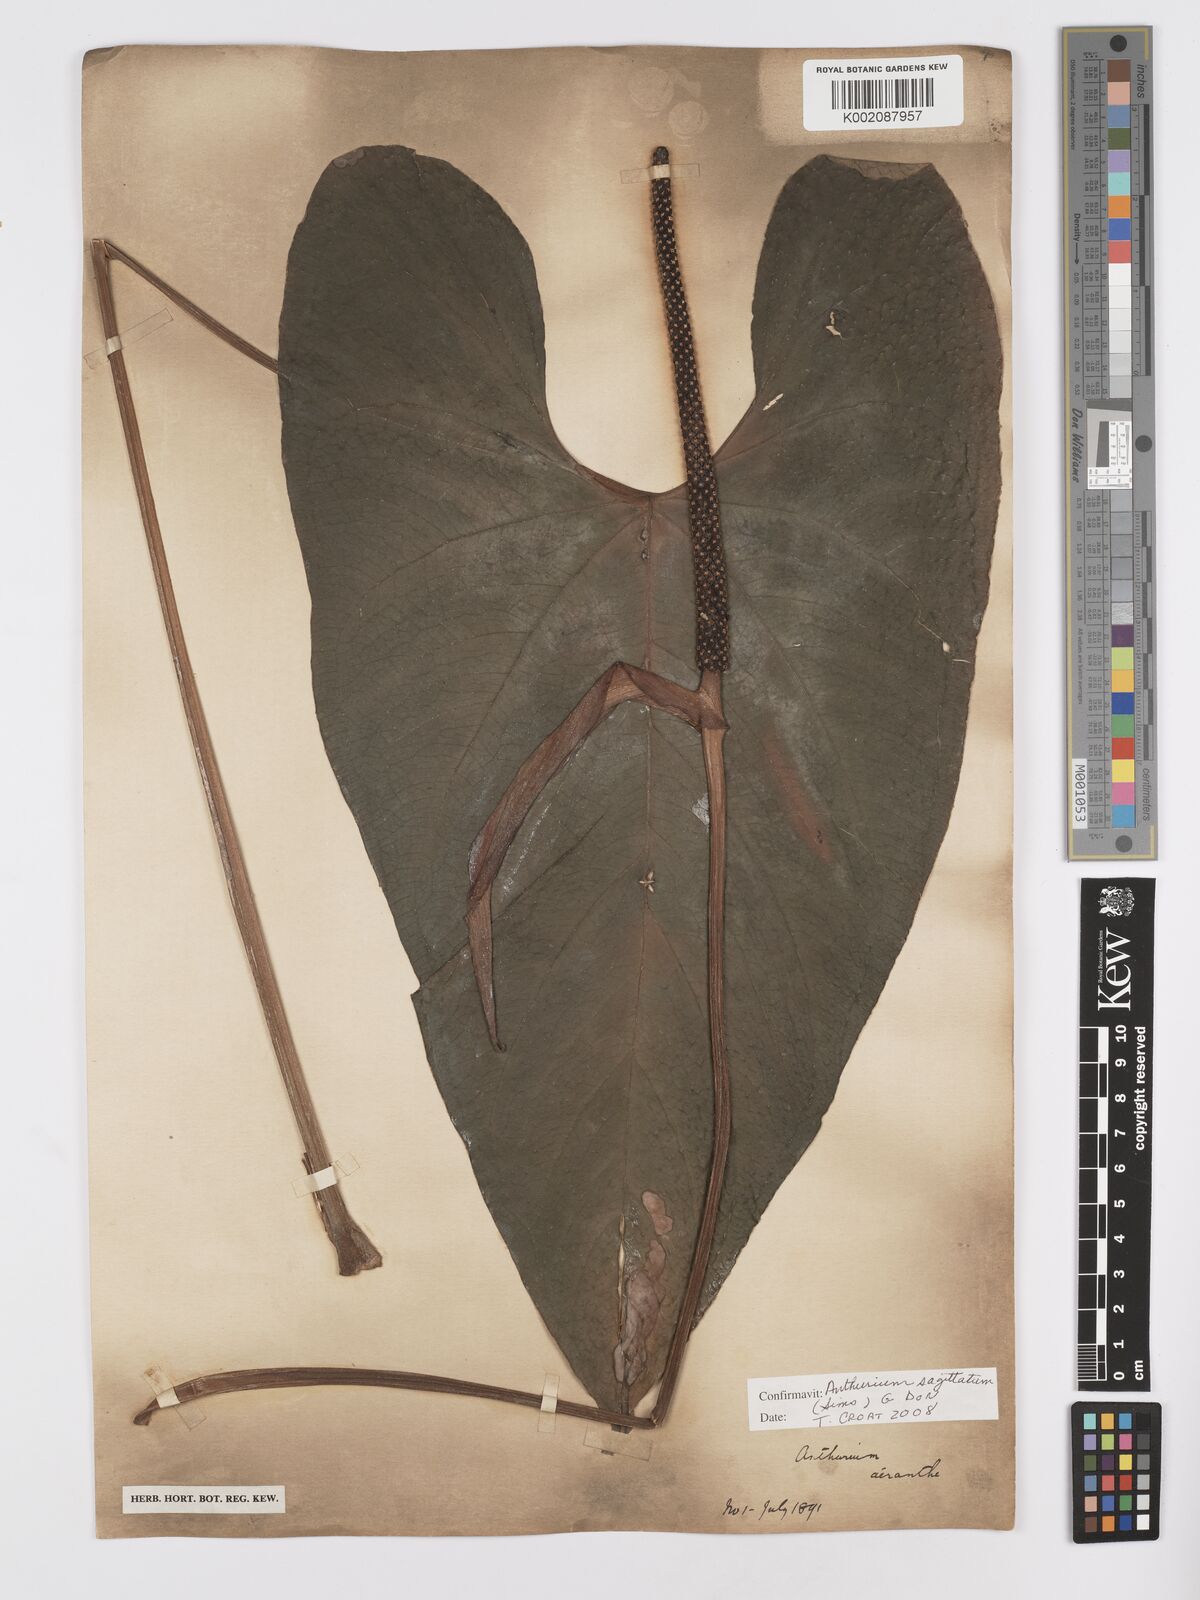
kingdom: Plantae
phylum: Tracheophyta
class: Liliopsida
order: Alismatales
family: Araceae
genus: Anthurium
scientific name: Anthurium sagittatum
